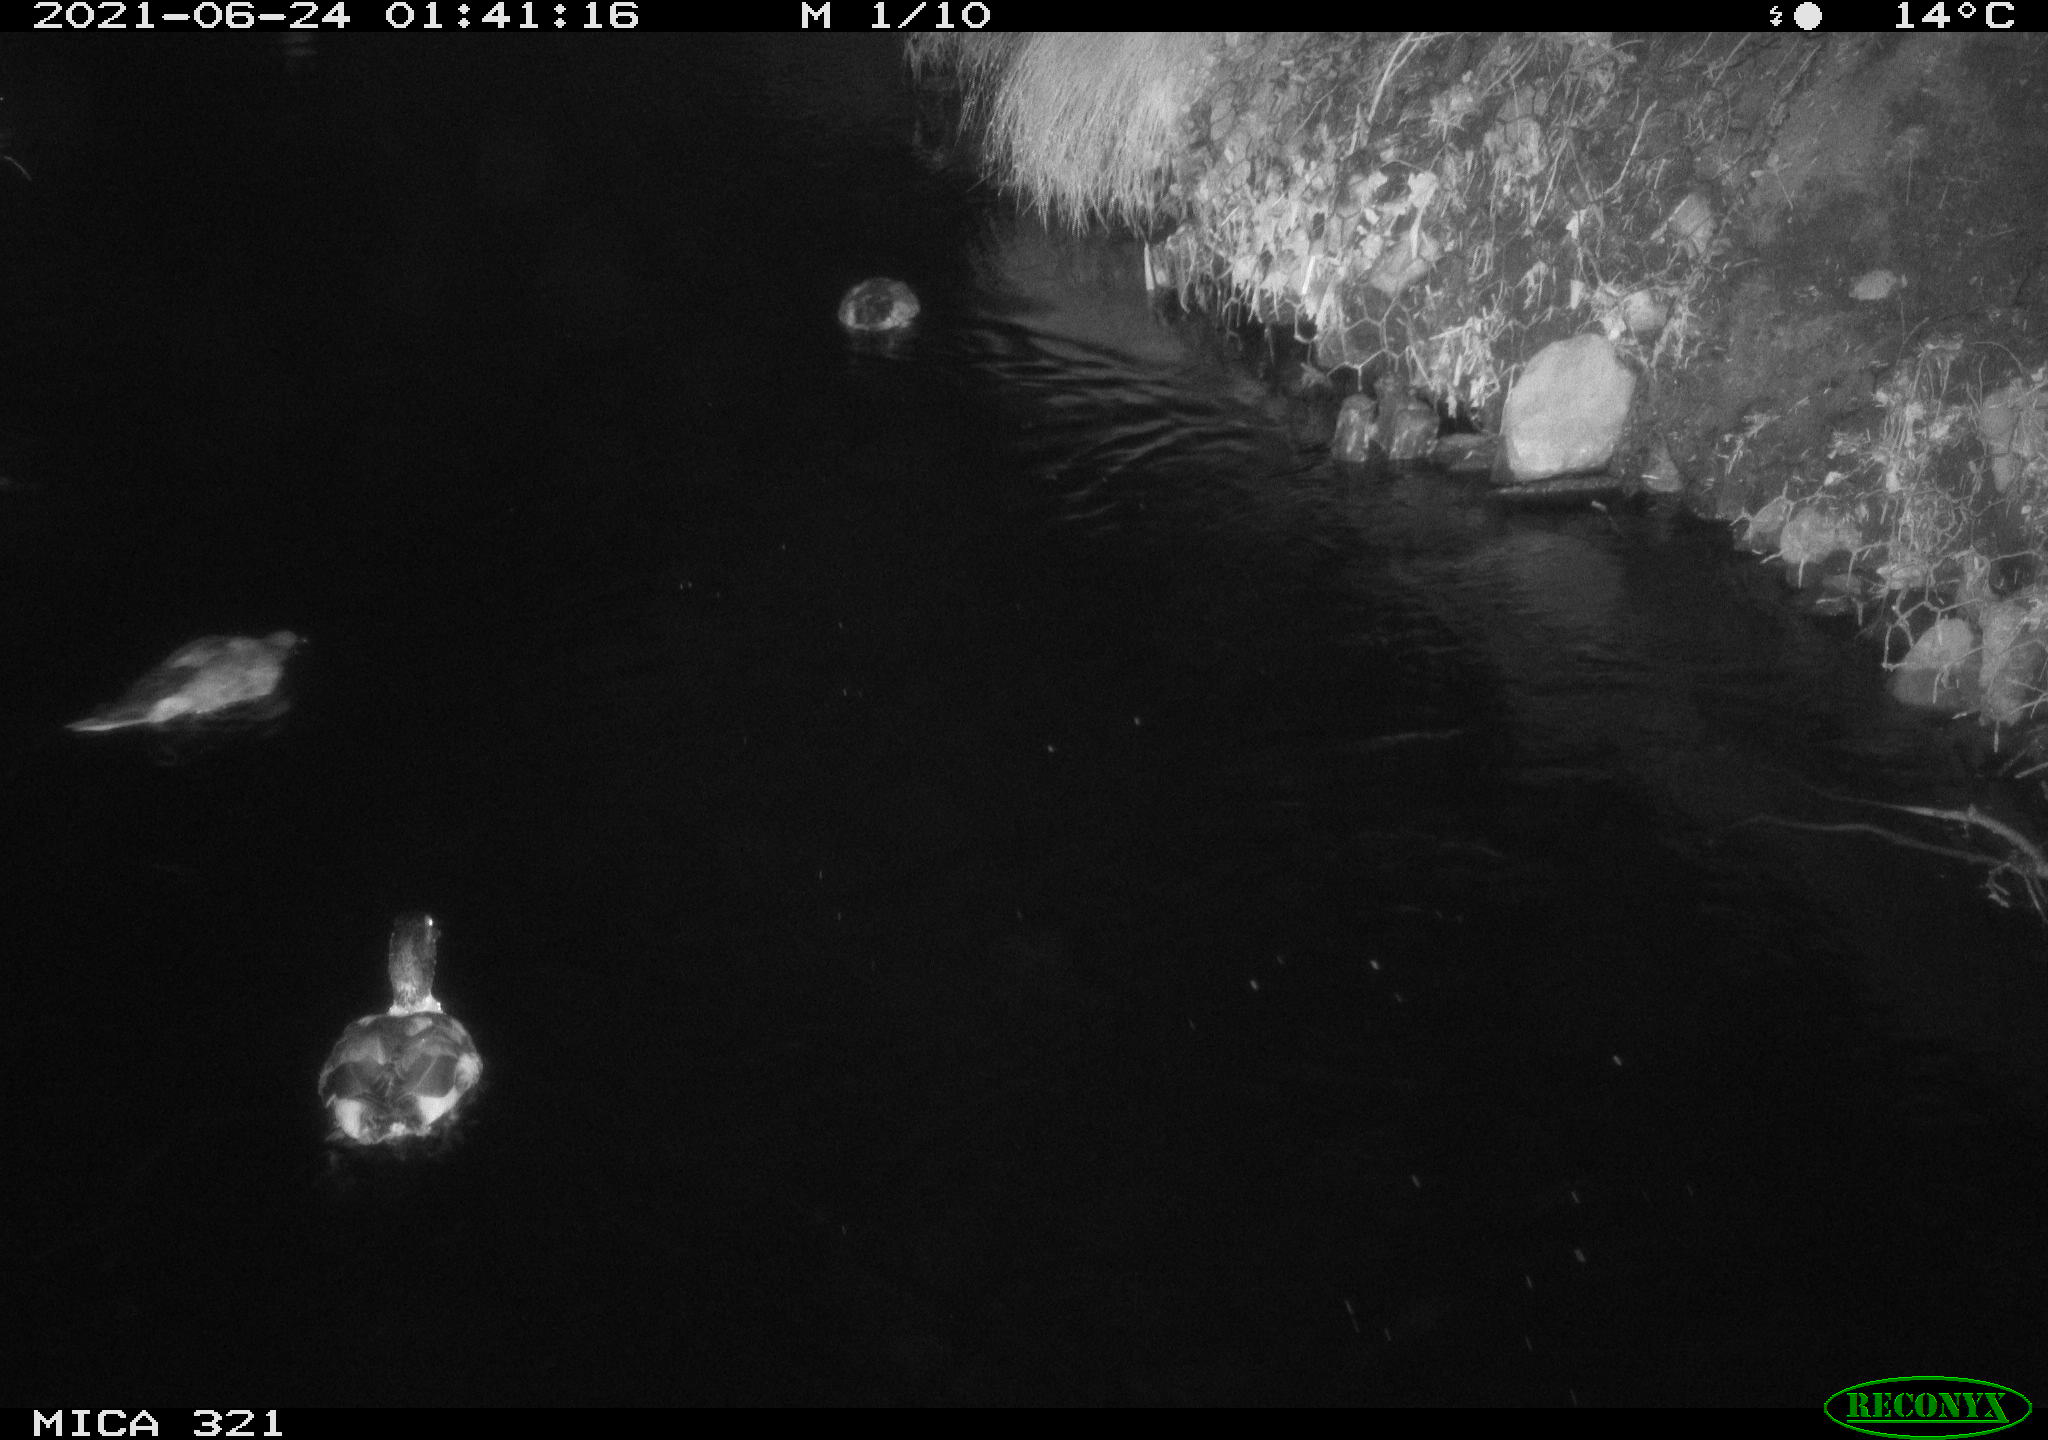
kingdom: Animalia
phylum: Chordata
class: Aves
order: Anseriformes
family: Anatidae
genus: Anas
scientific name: Anas platyrhynchos
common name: Mallard
